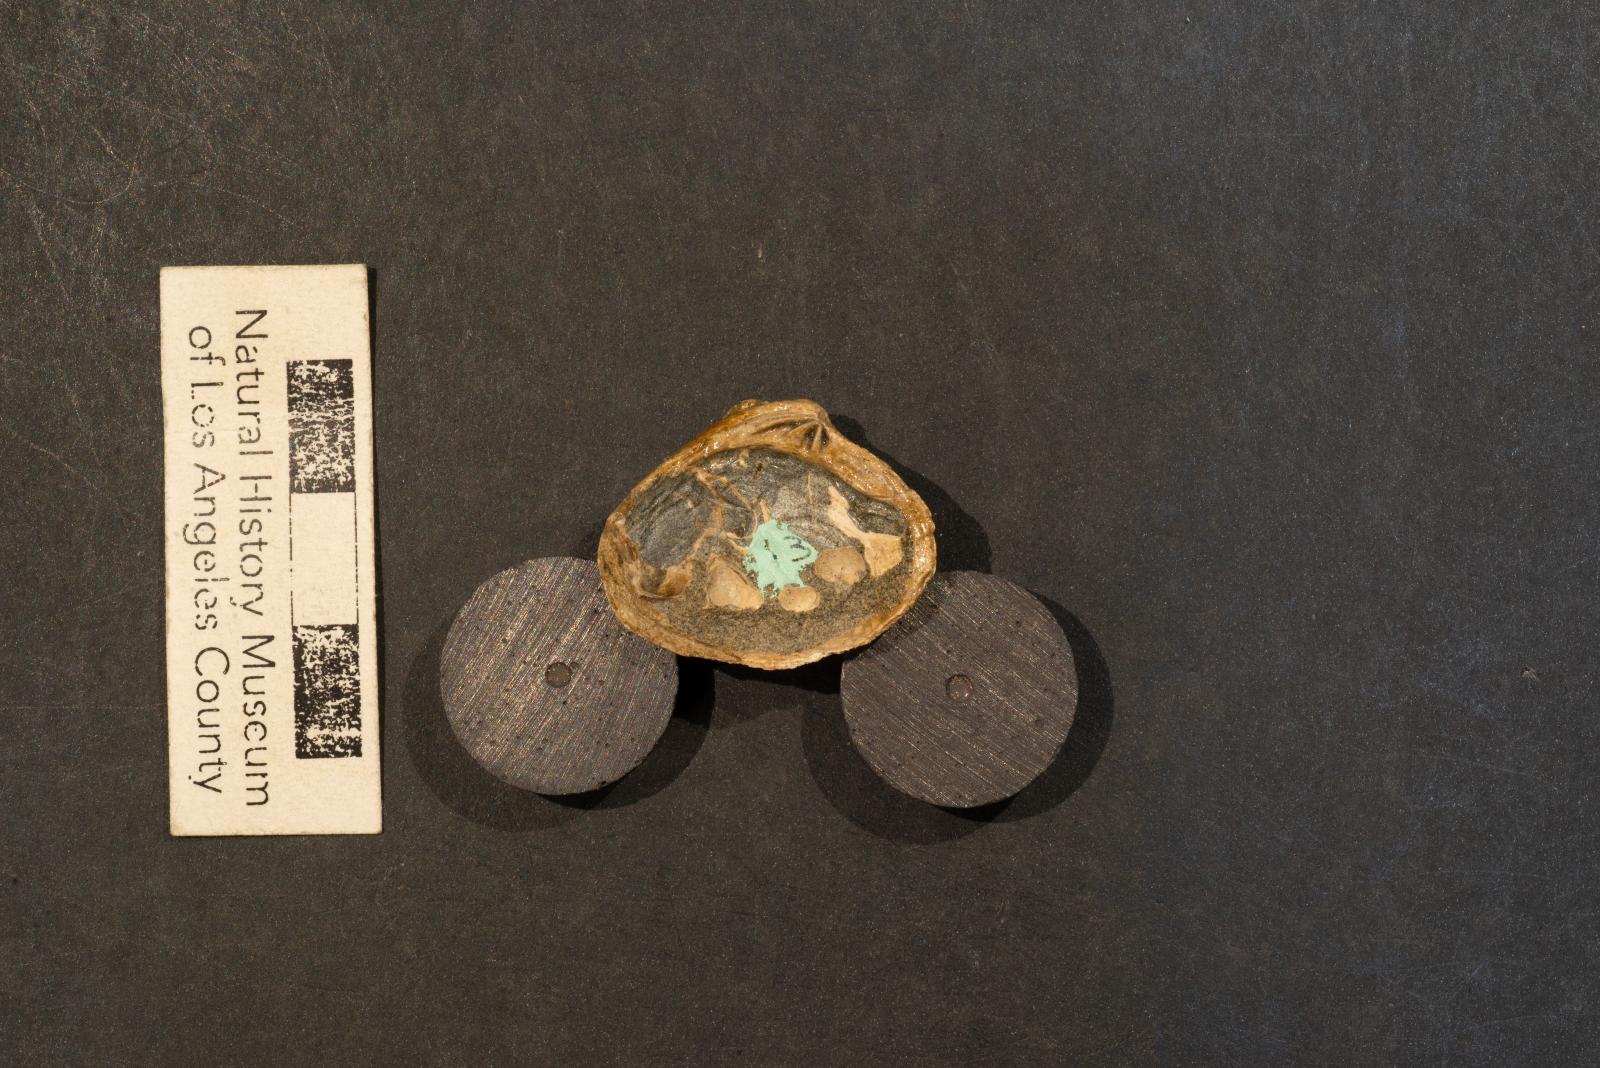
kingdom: Animalia
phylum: Mollusca
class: Bivalvia
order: Venerida
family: Veneridae
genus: Calva
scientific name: Calva Trigonocallista taffi
